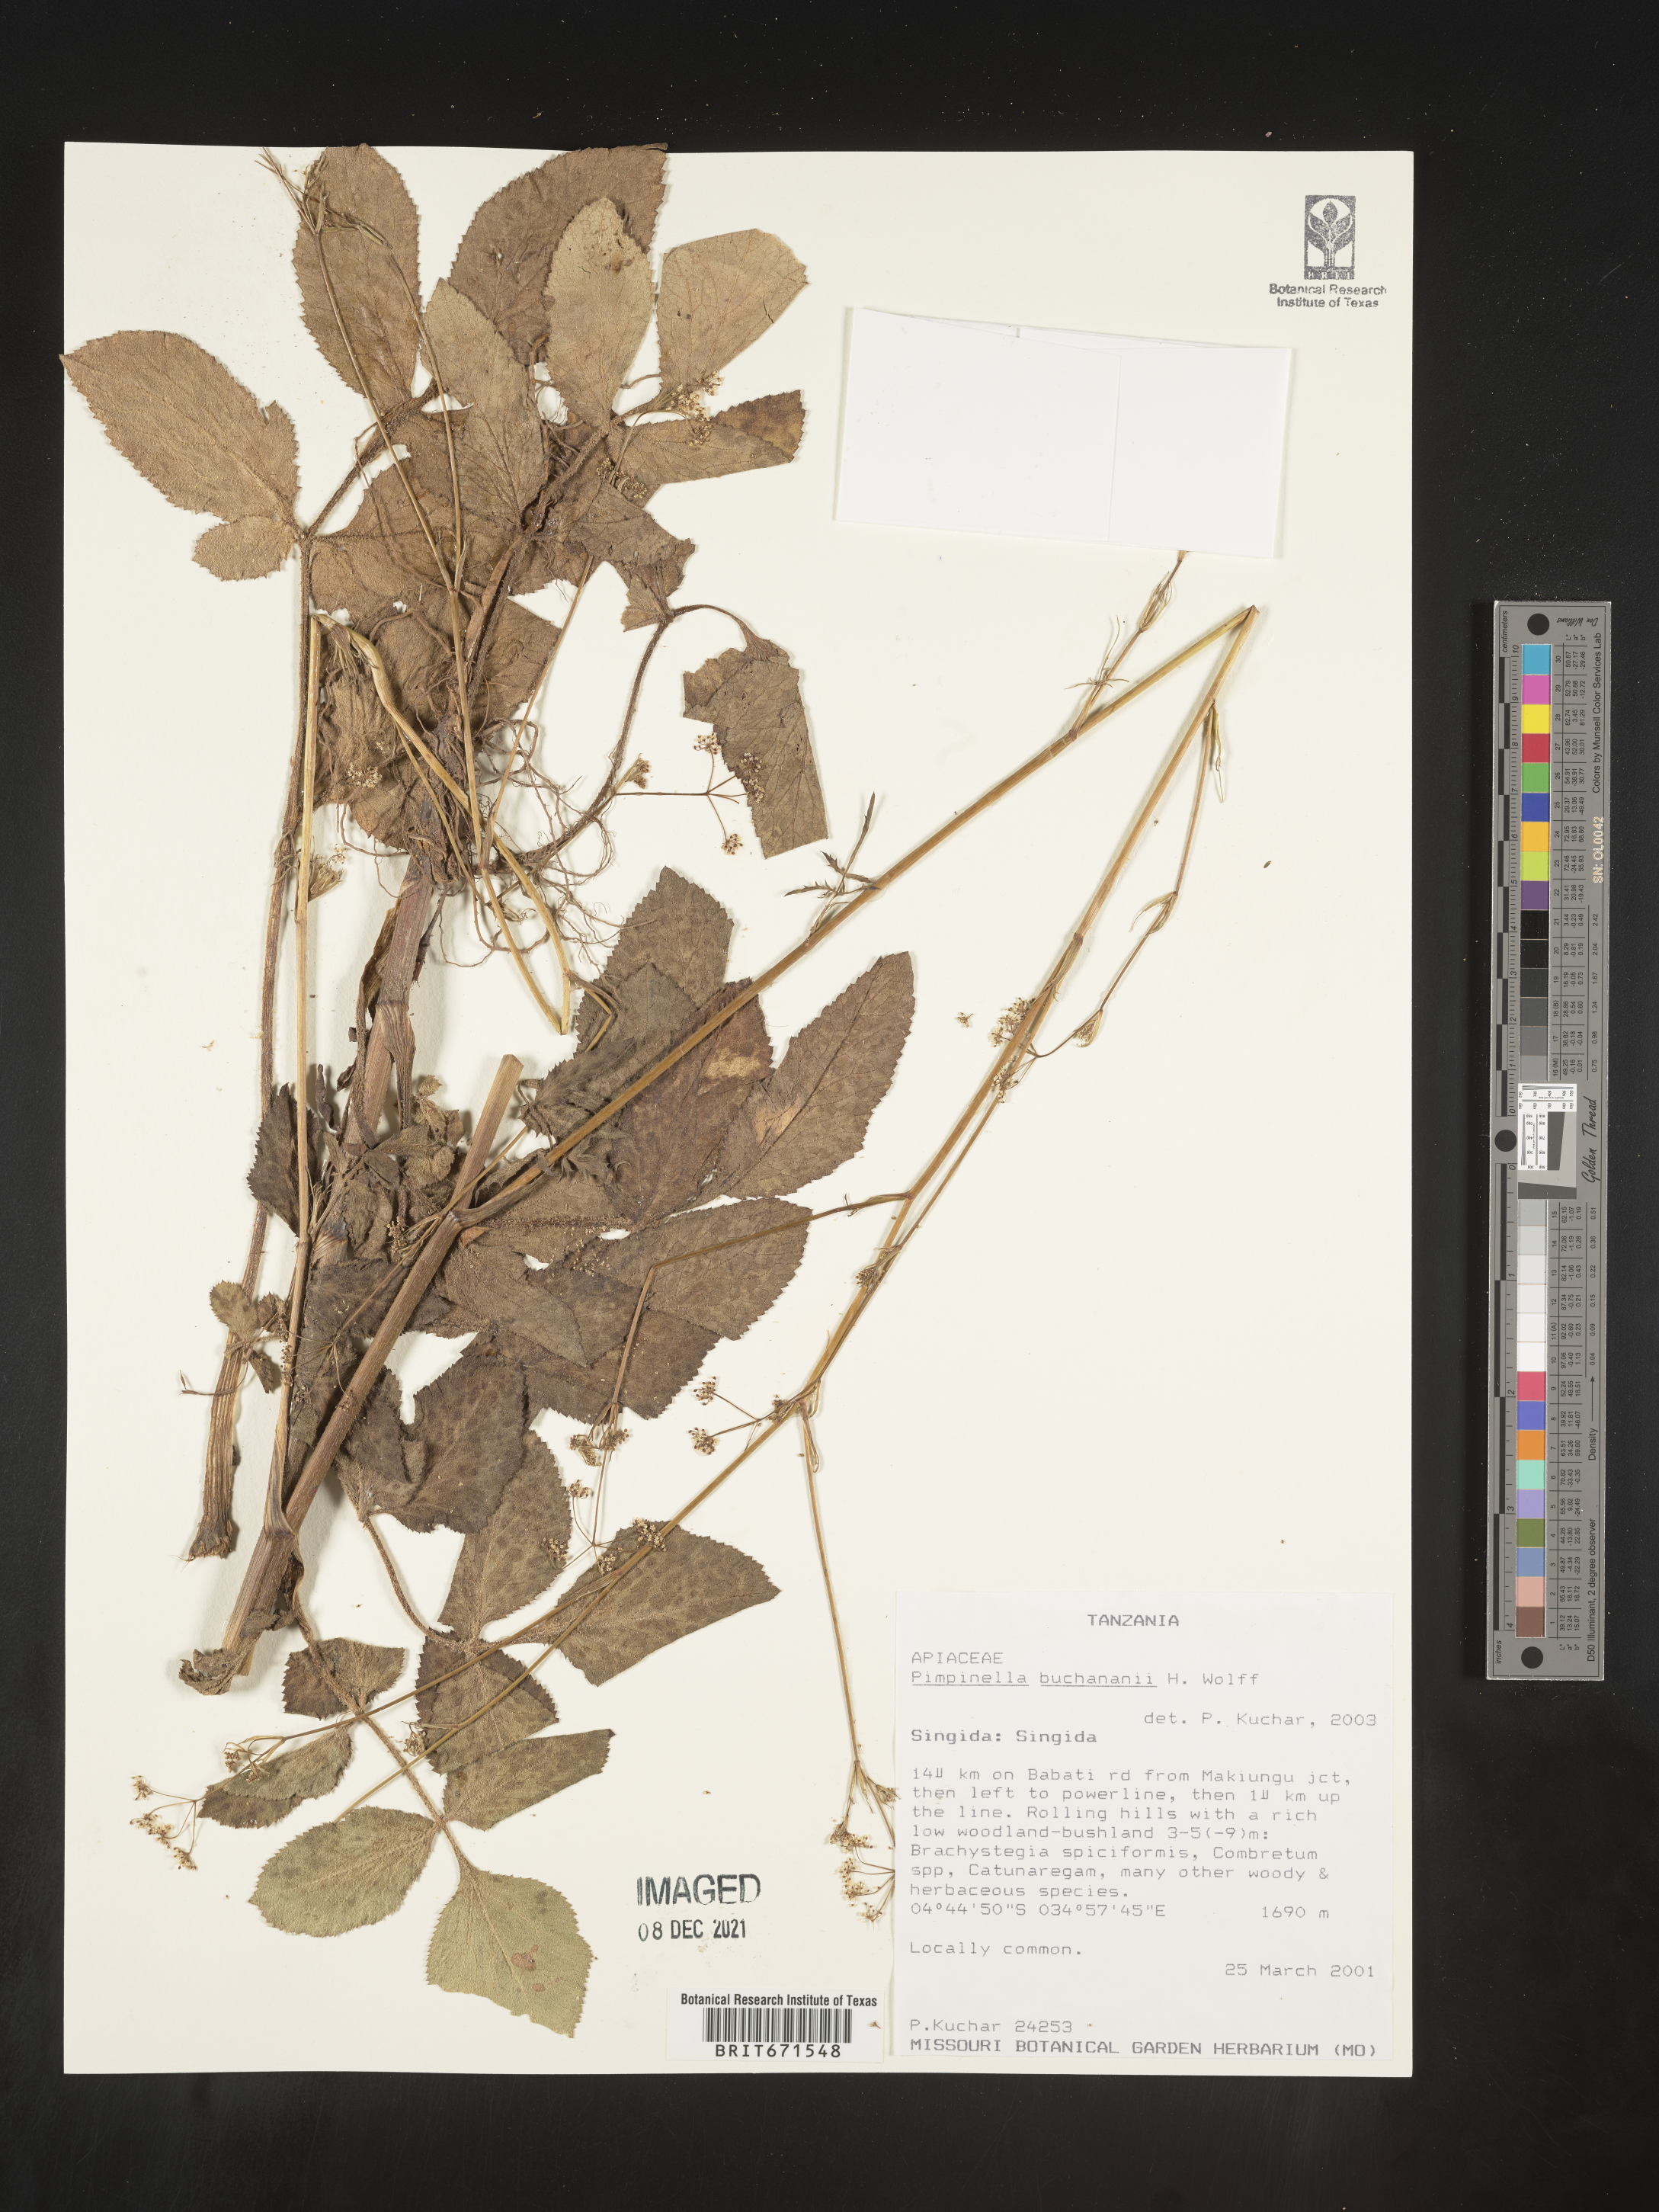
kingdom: Plantae
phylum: Tracheophyta
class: Magnoliopsida
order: Apiales
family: Apiaceae
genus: Pimpinella
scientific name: Pimpinella
